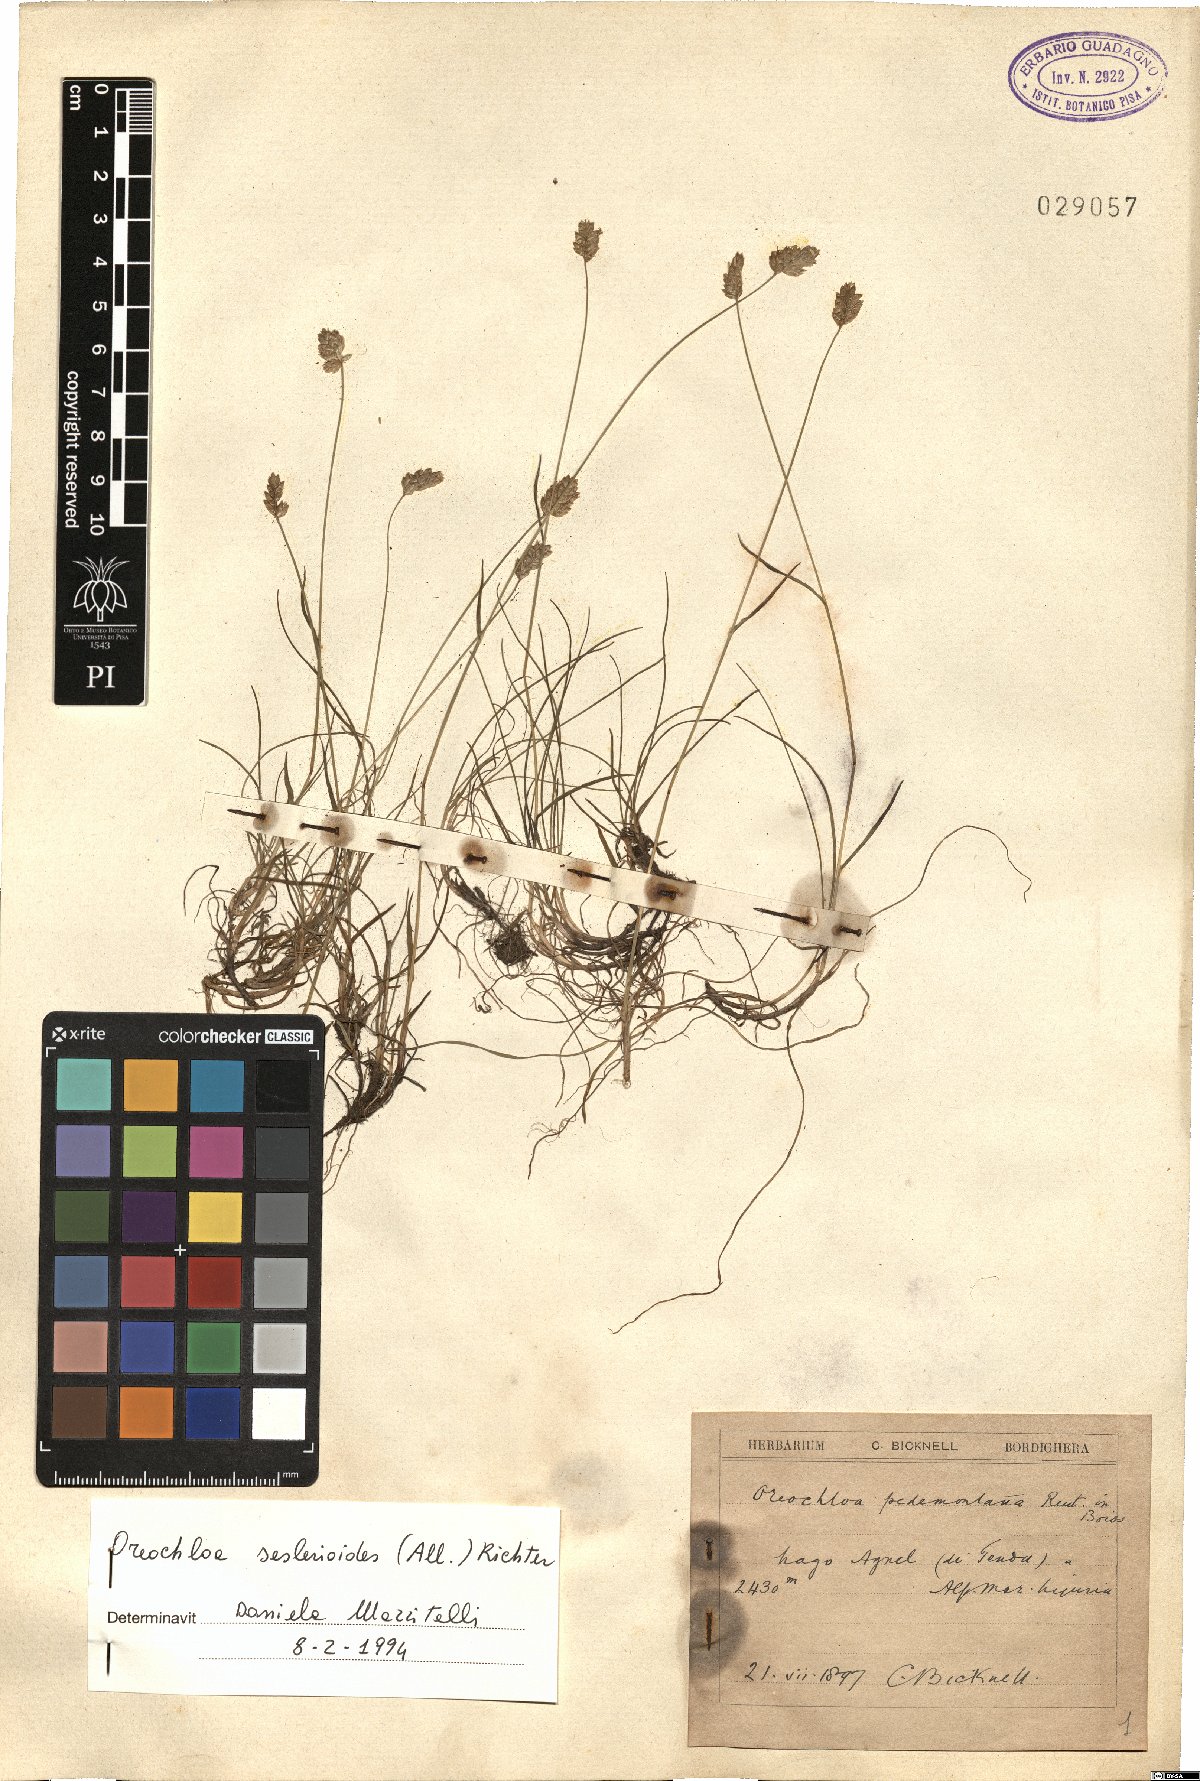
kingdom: Plantae
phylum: Tracheophyta
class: Liliopsida
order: Poales
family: Poaceae
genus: Oreochloa
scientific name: Oreochloa seslerioides
